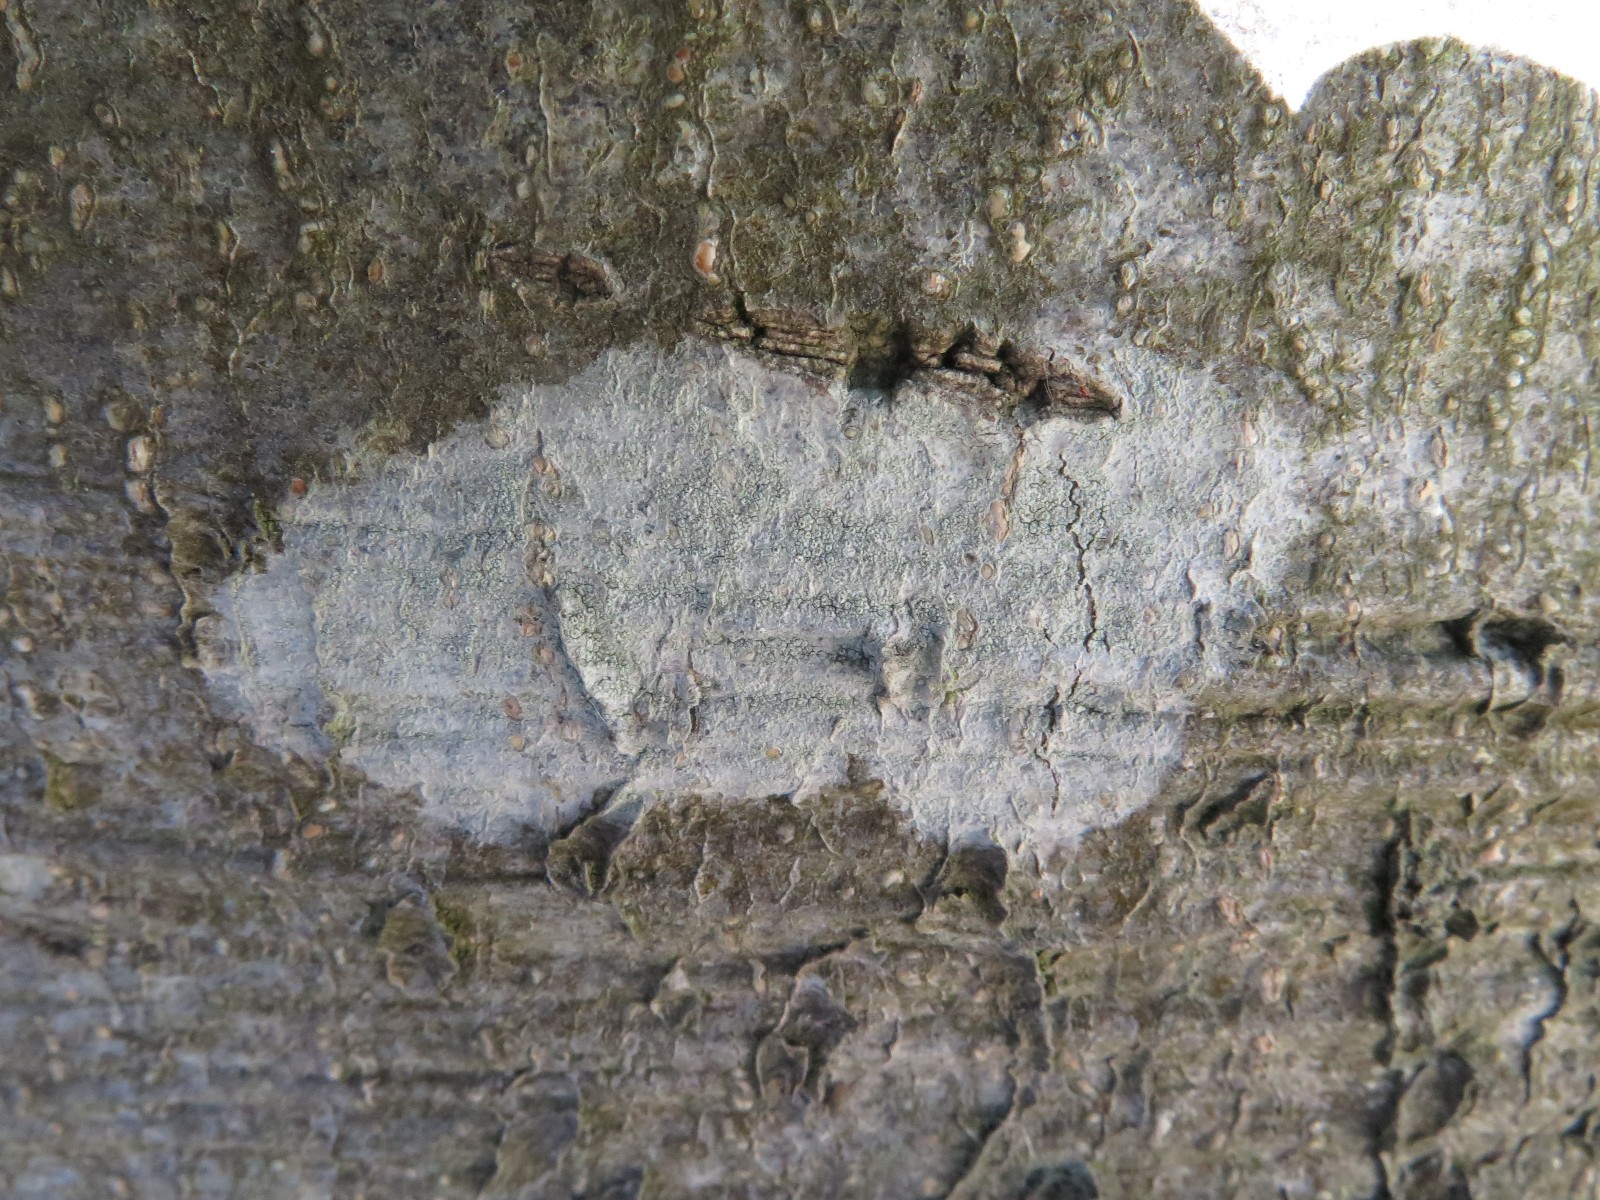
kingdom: Fungi
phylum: Ascomycota
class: Lecanoromycetes
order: Ostropales
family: Phlyctidaceae
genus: Phlyctis
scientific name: Phlyctis argena
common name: almindelig sølvlav
